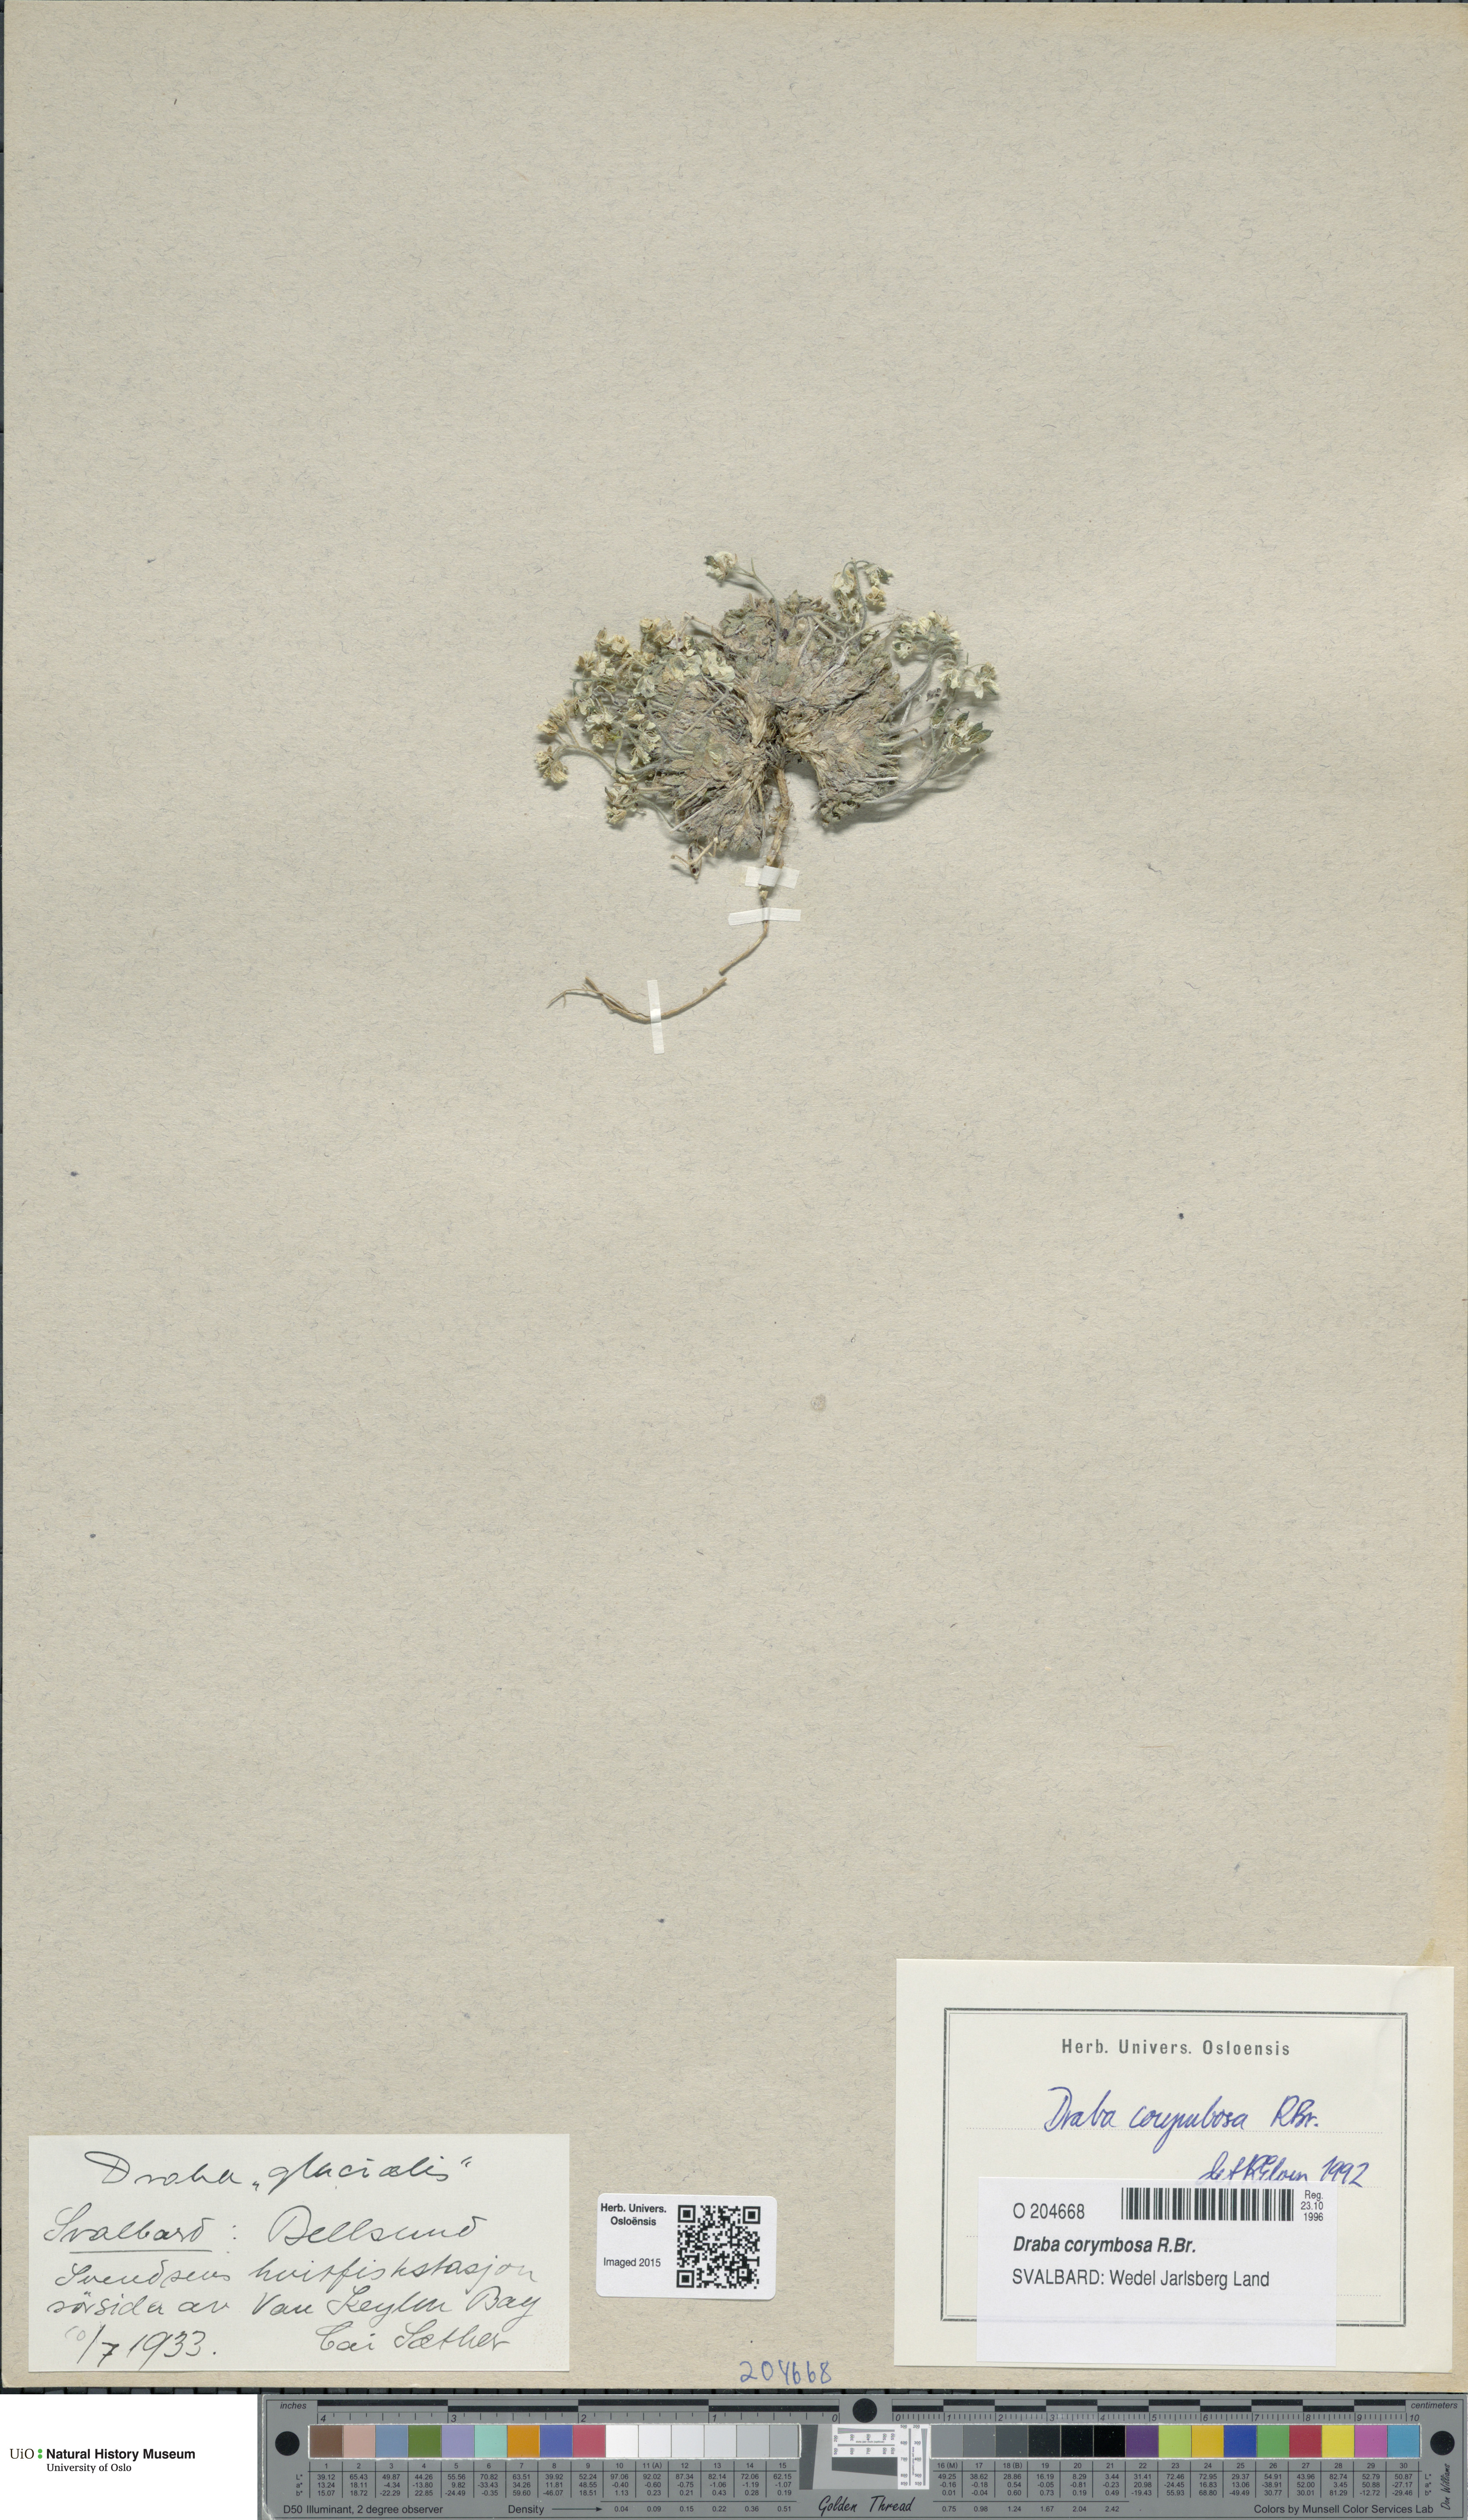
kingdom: Plantae
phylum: Tracheophyta
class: Magnoliopsida
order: Brassicales
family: Brassicaceae
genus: Draba
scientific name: Draba corymbosa
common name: Cushion whitlow-grass
